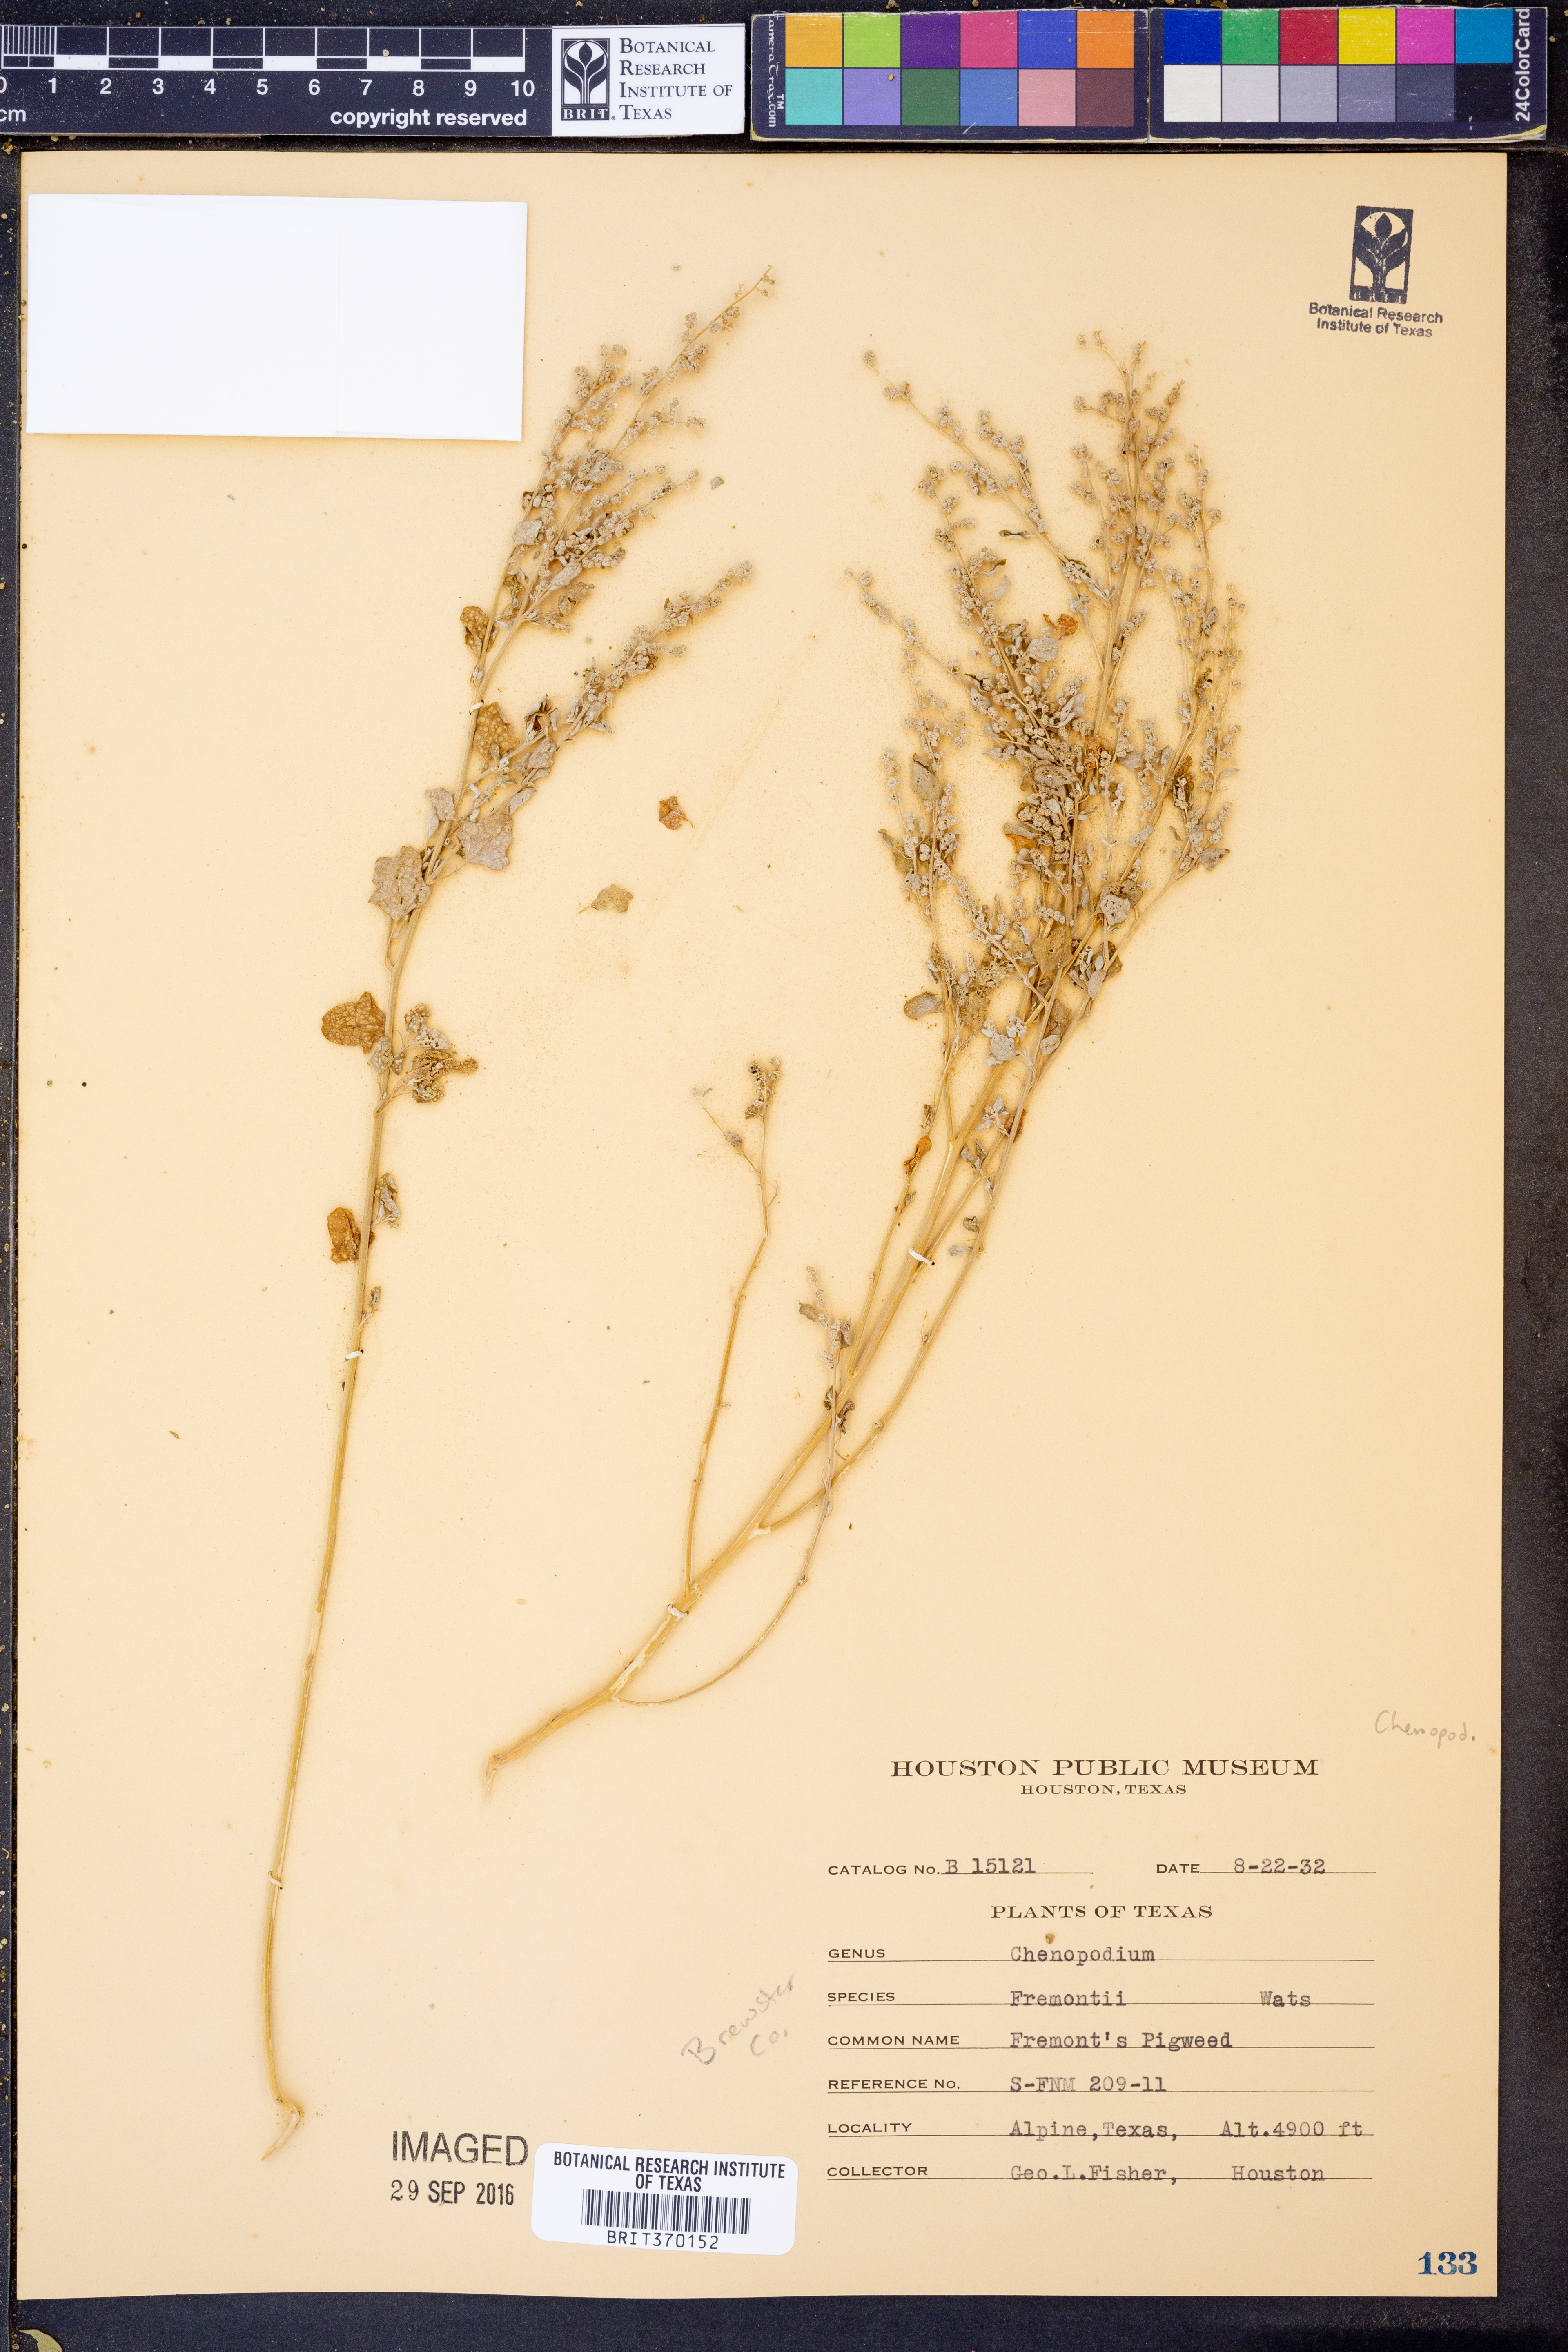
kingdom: Plantae
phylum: Tracheophyta
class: Magnoliopsida
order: Caryophyllales
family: Amaranthaceae
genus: Chenopodium
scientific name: Chenopodium fremontii
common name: Fremont's goosefoot
